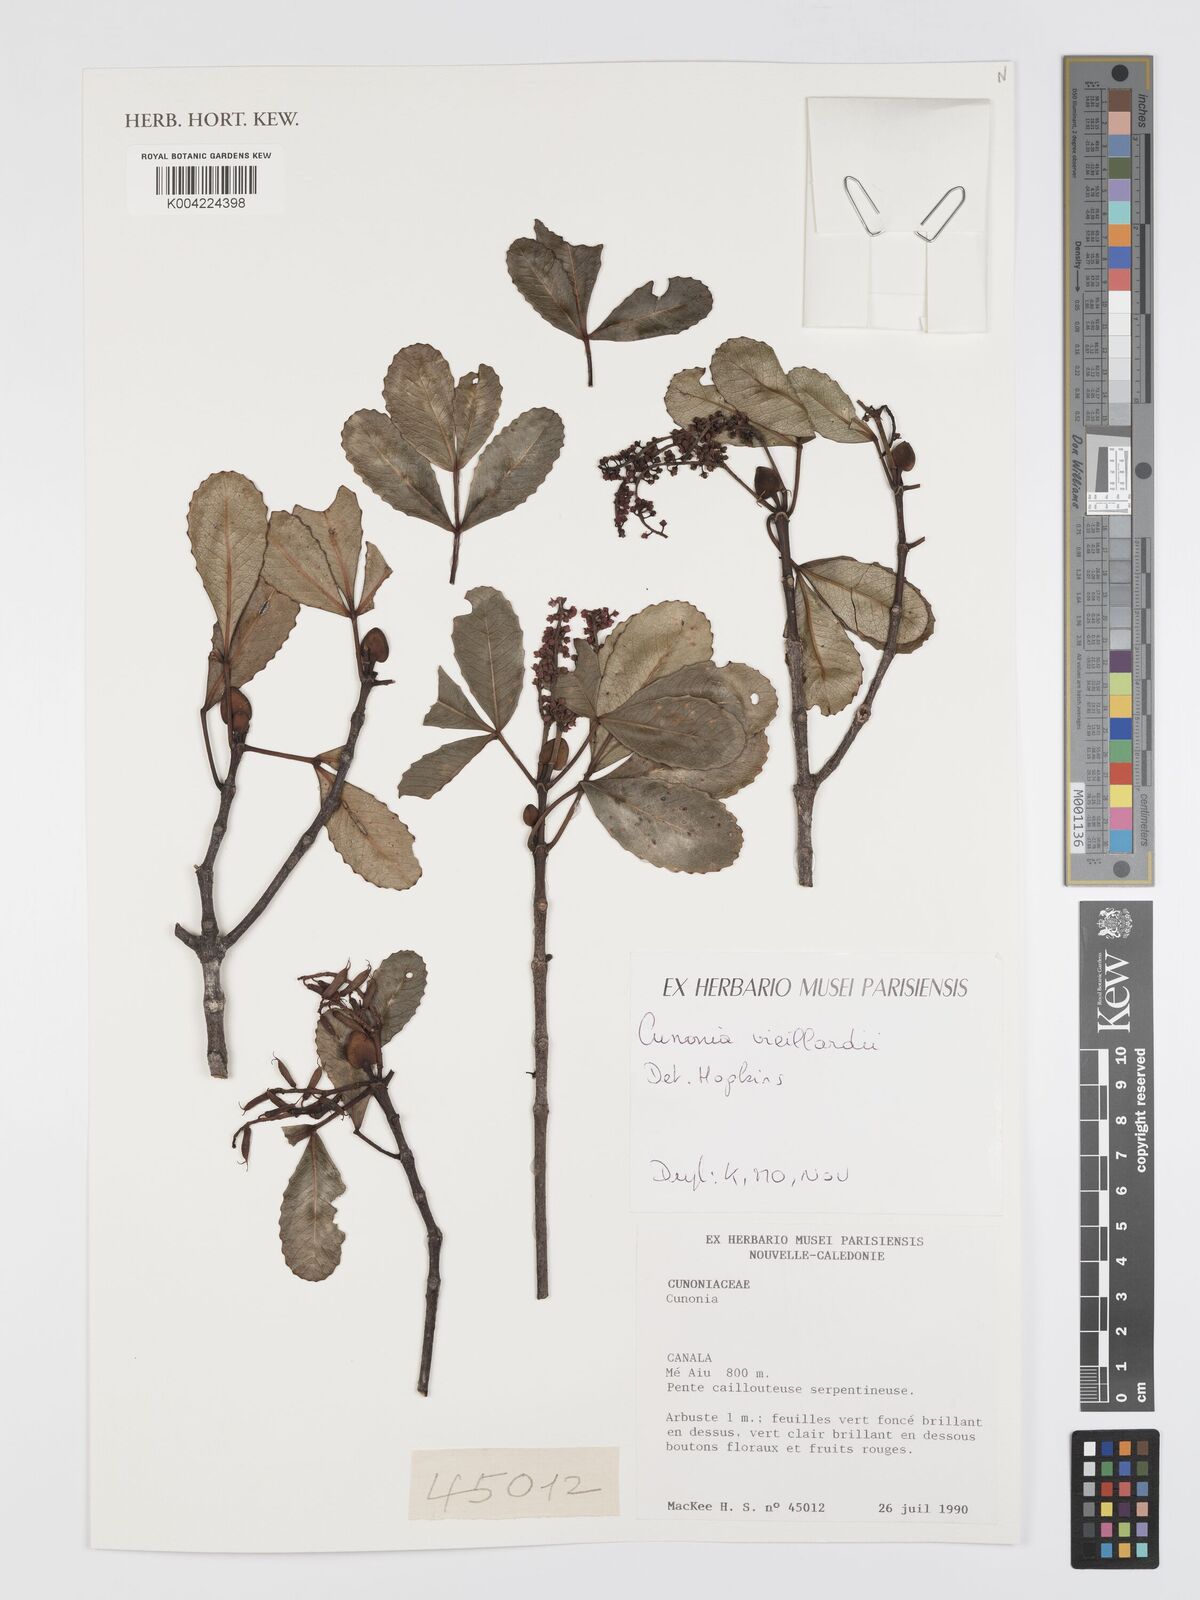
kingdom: Plantae
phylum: Tracheophyta
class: Magnoliopsida
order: Oxalidales
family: Cunoniaceae
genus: Cunonia
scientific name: Cunonia vieillardii
